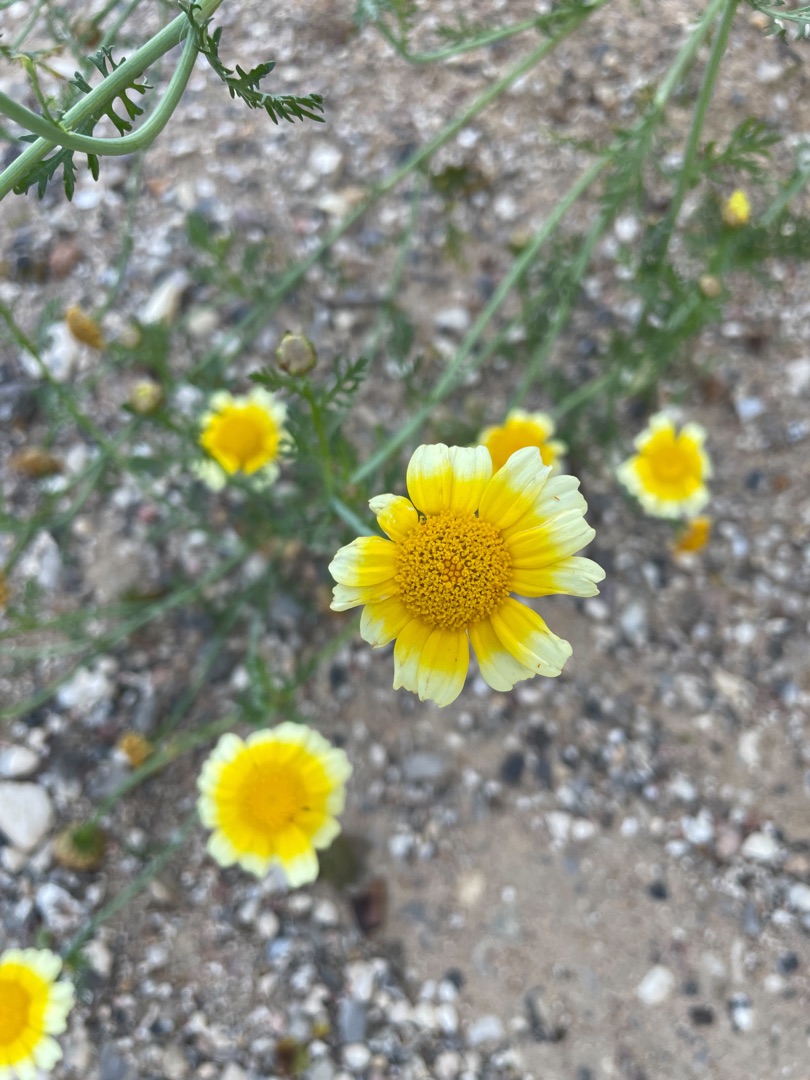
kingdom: Plantae
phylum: Tracheophyta
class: Magnoliopsida
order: Asterales
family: Asteraceae
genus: Glebionis
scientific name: Glebionis carinata
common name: Flerfarvet okseøje
